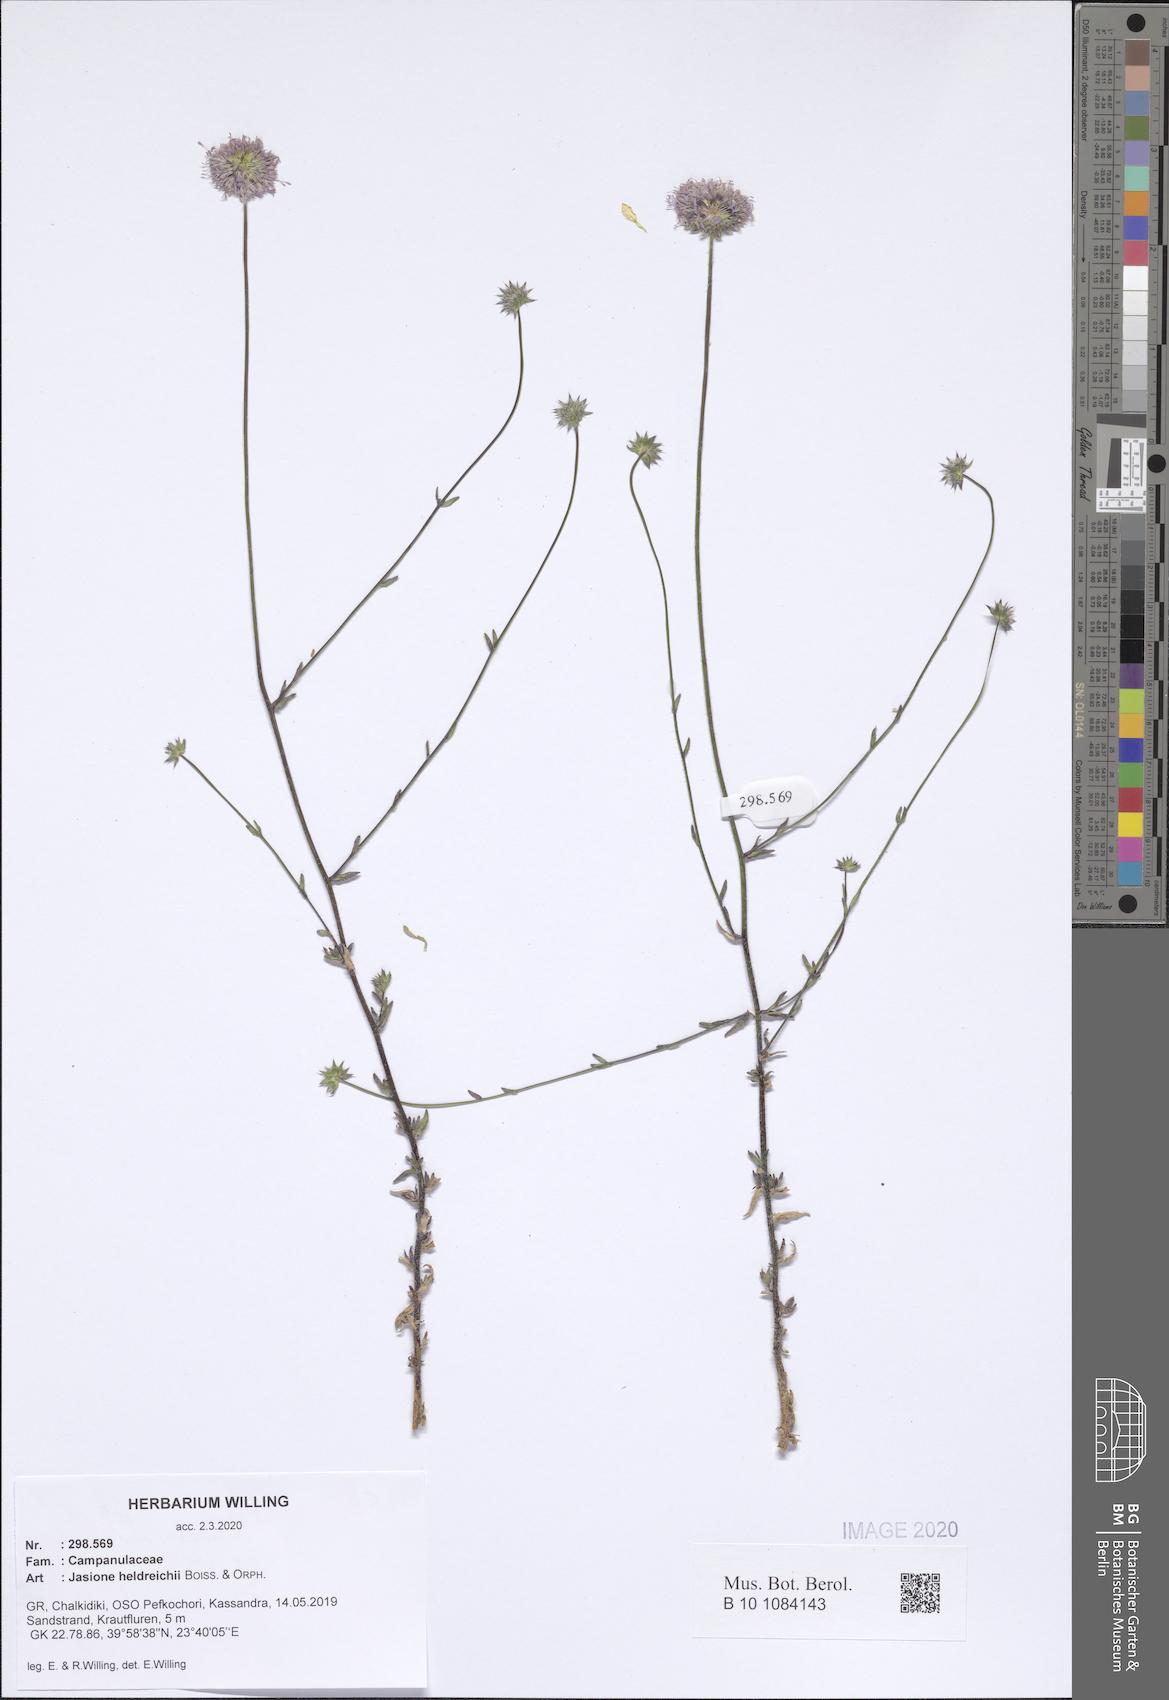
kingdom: Plantae
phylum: Tracheophyta
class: Magnoliopsida
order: Asterales
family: Campanulaceae
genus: Jasione
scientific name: Jasione heldreichii
